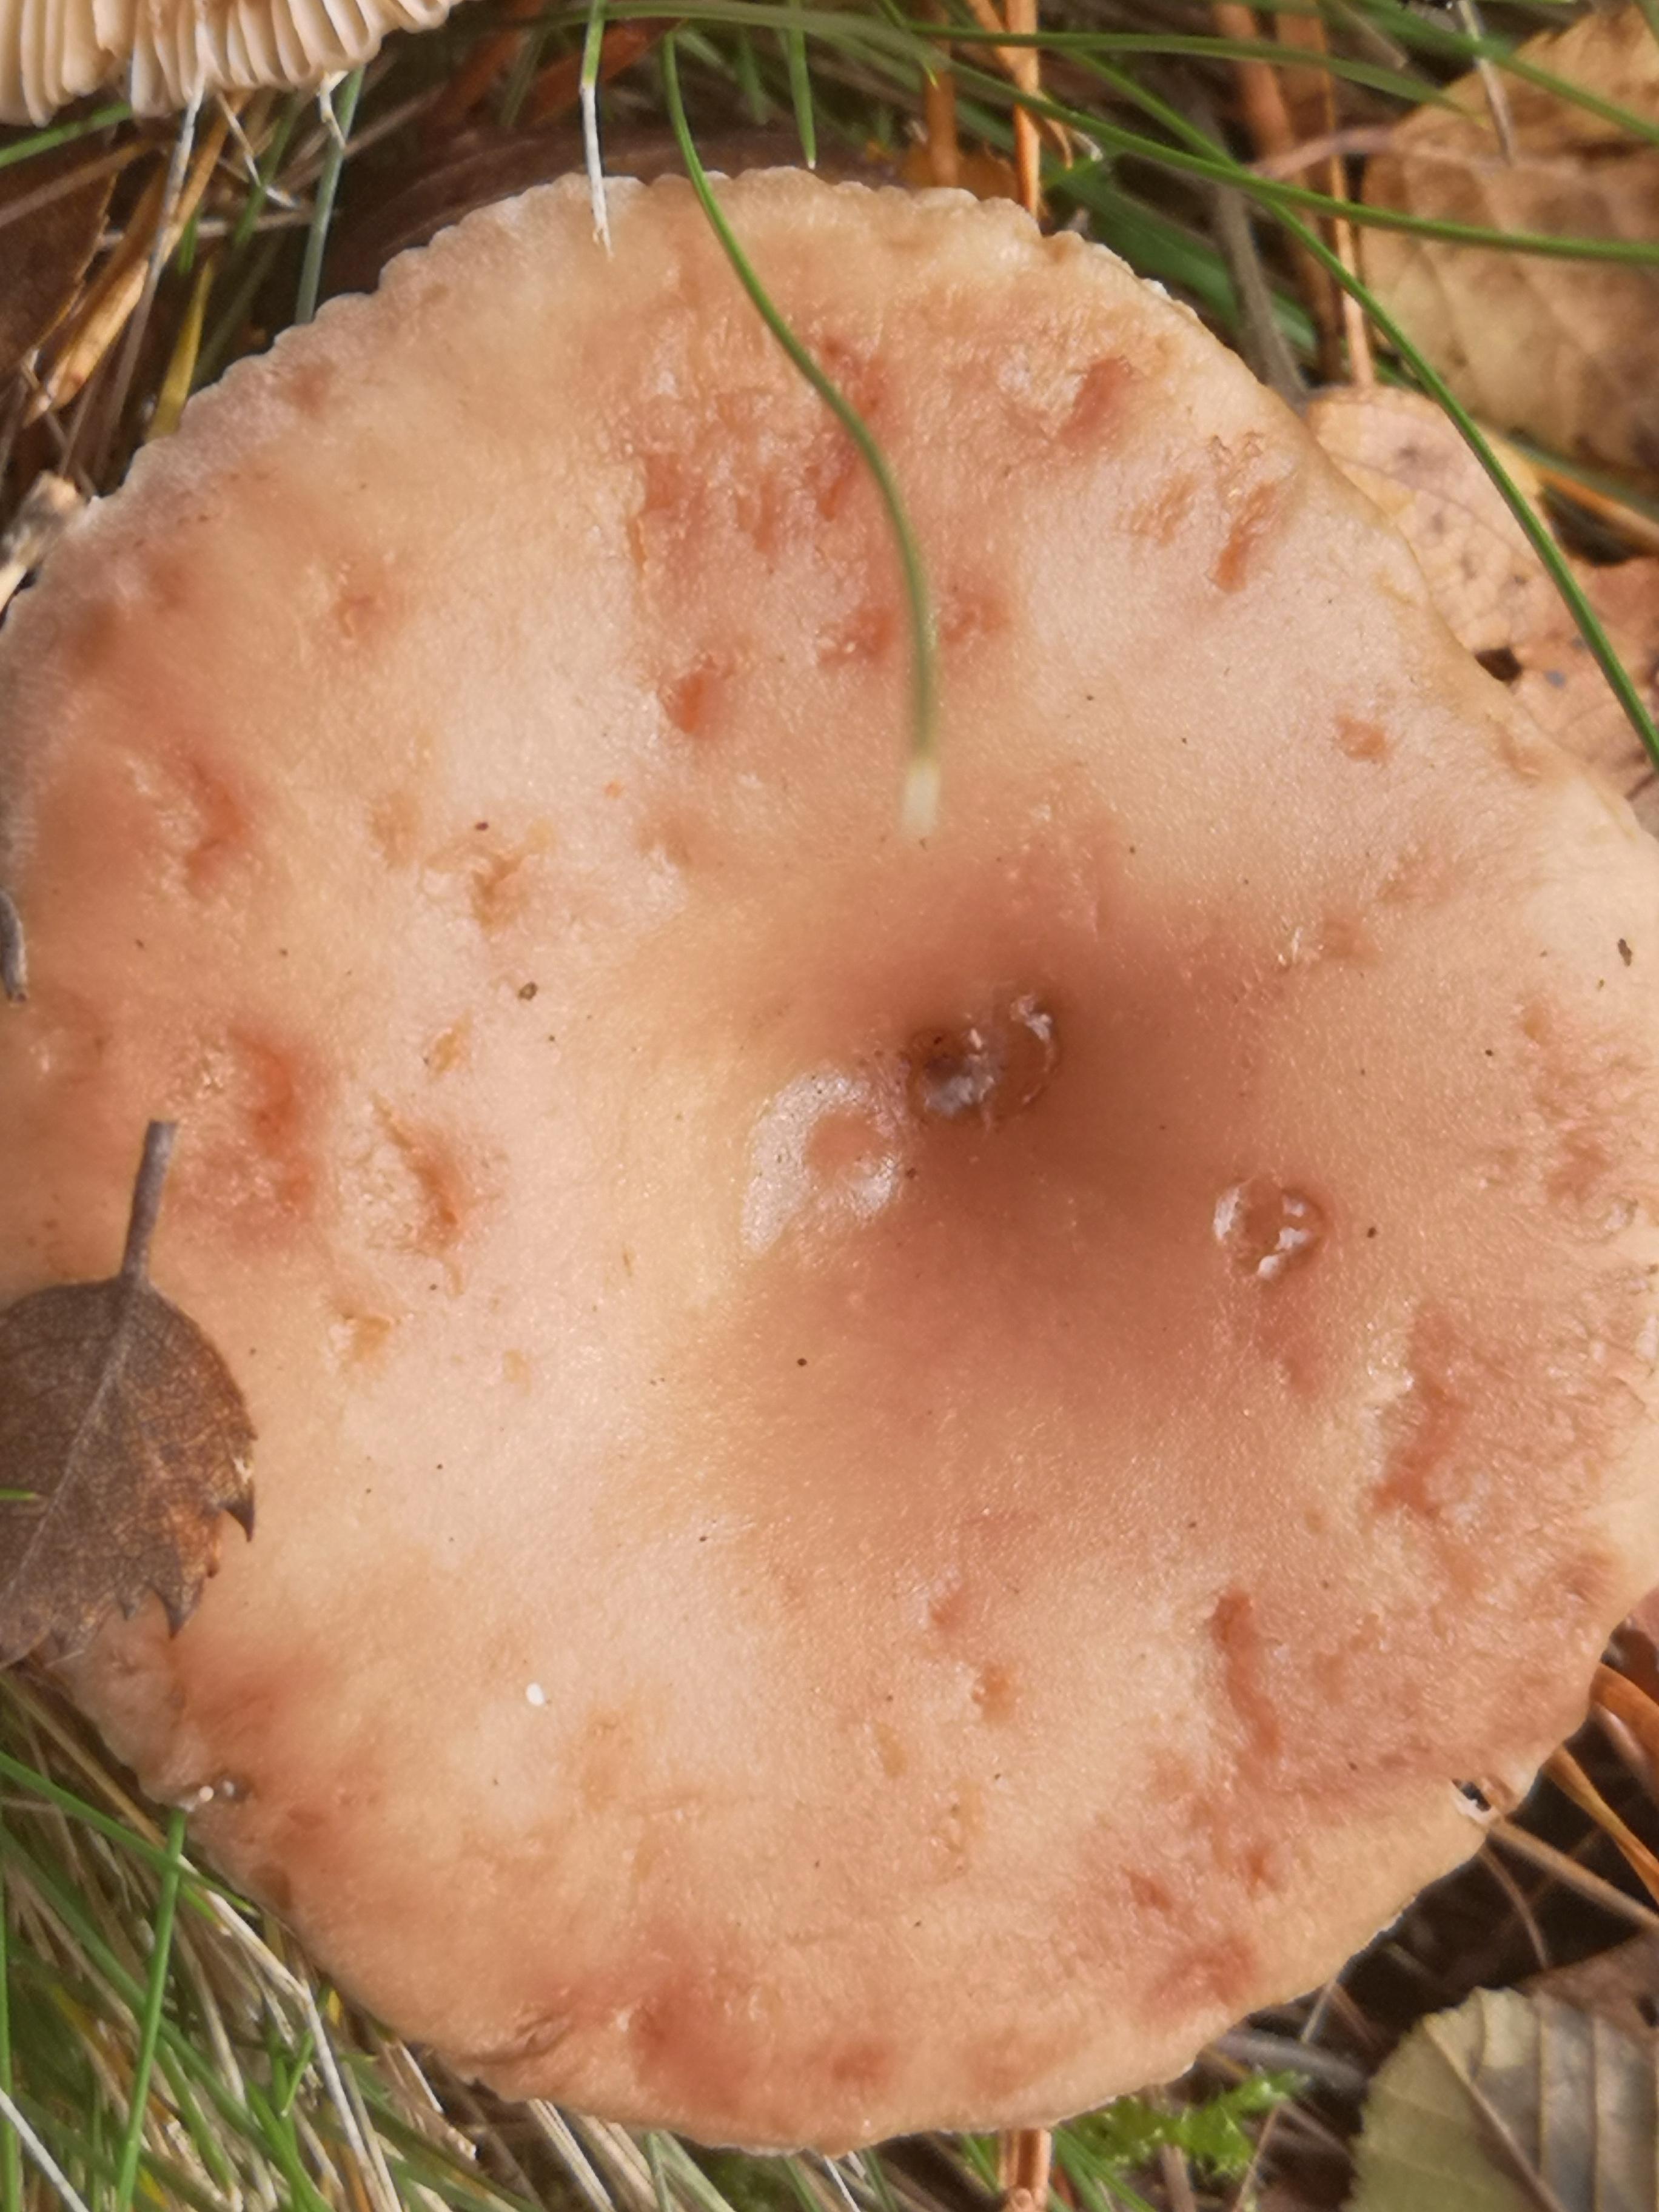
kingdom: Fungi
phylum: Basidiomycota
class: Agaricomycetes
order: Russulales
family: Russulaceae
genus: Lactarius
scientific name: Lactarius glyciosmus
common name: kokos-mælkehat
